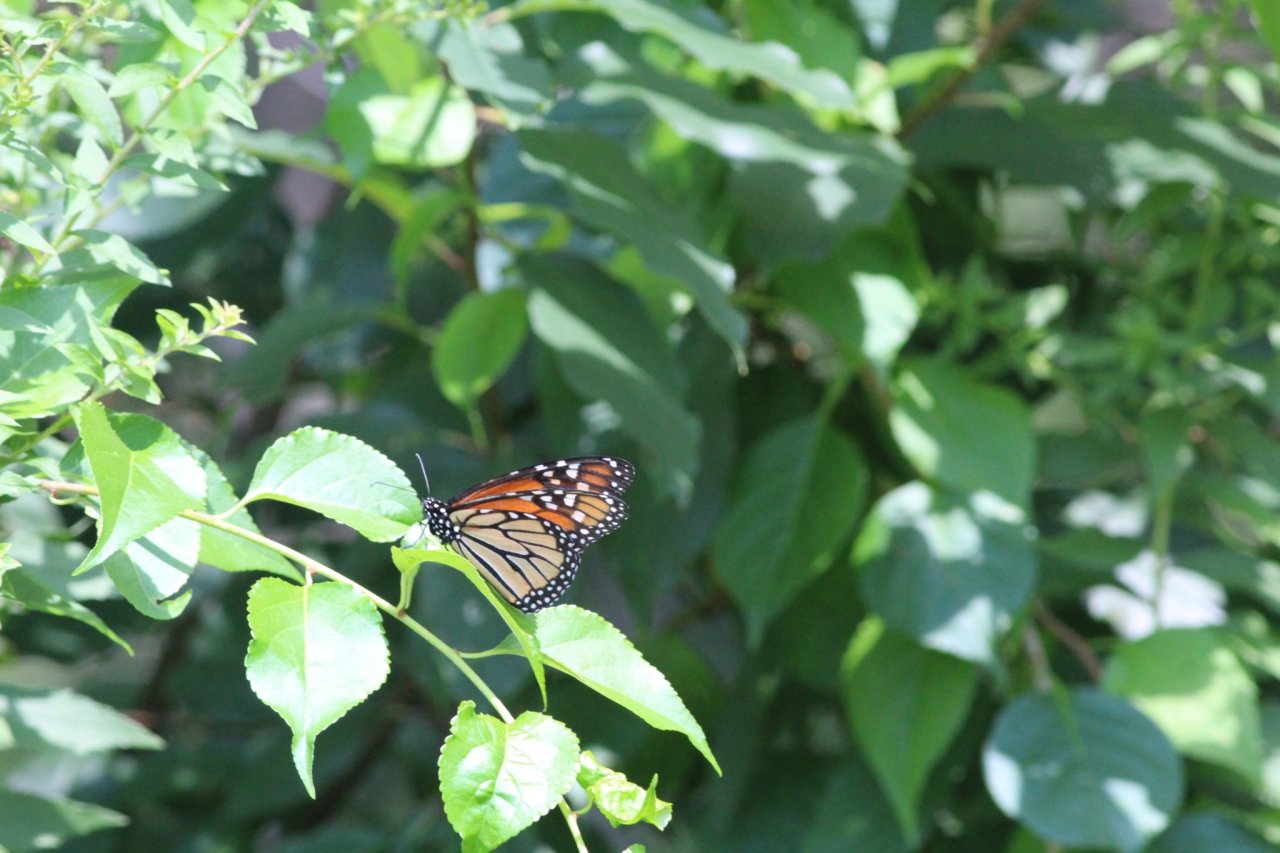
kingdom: Animalia
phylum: Arthropoda
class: Insecta
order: Lepidoptera
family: Nymphalidae
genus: Danaus
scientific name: Danaus plexippus
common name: Monarch
